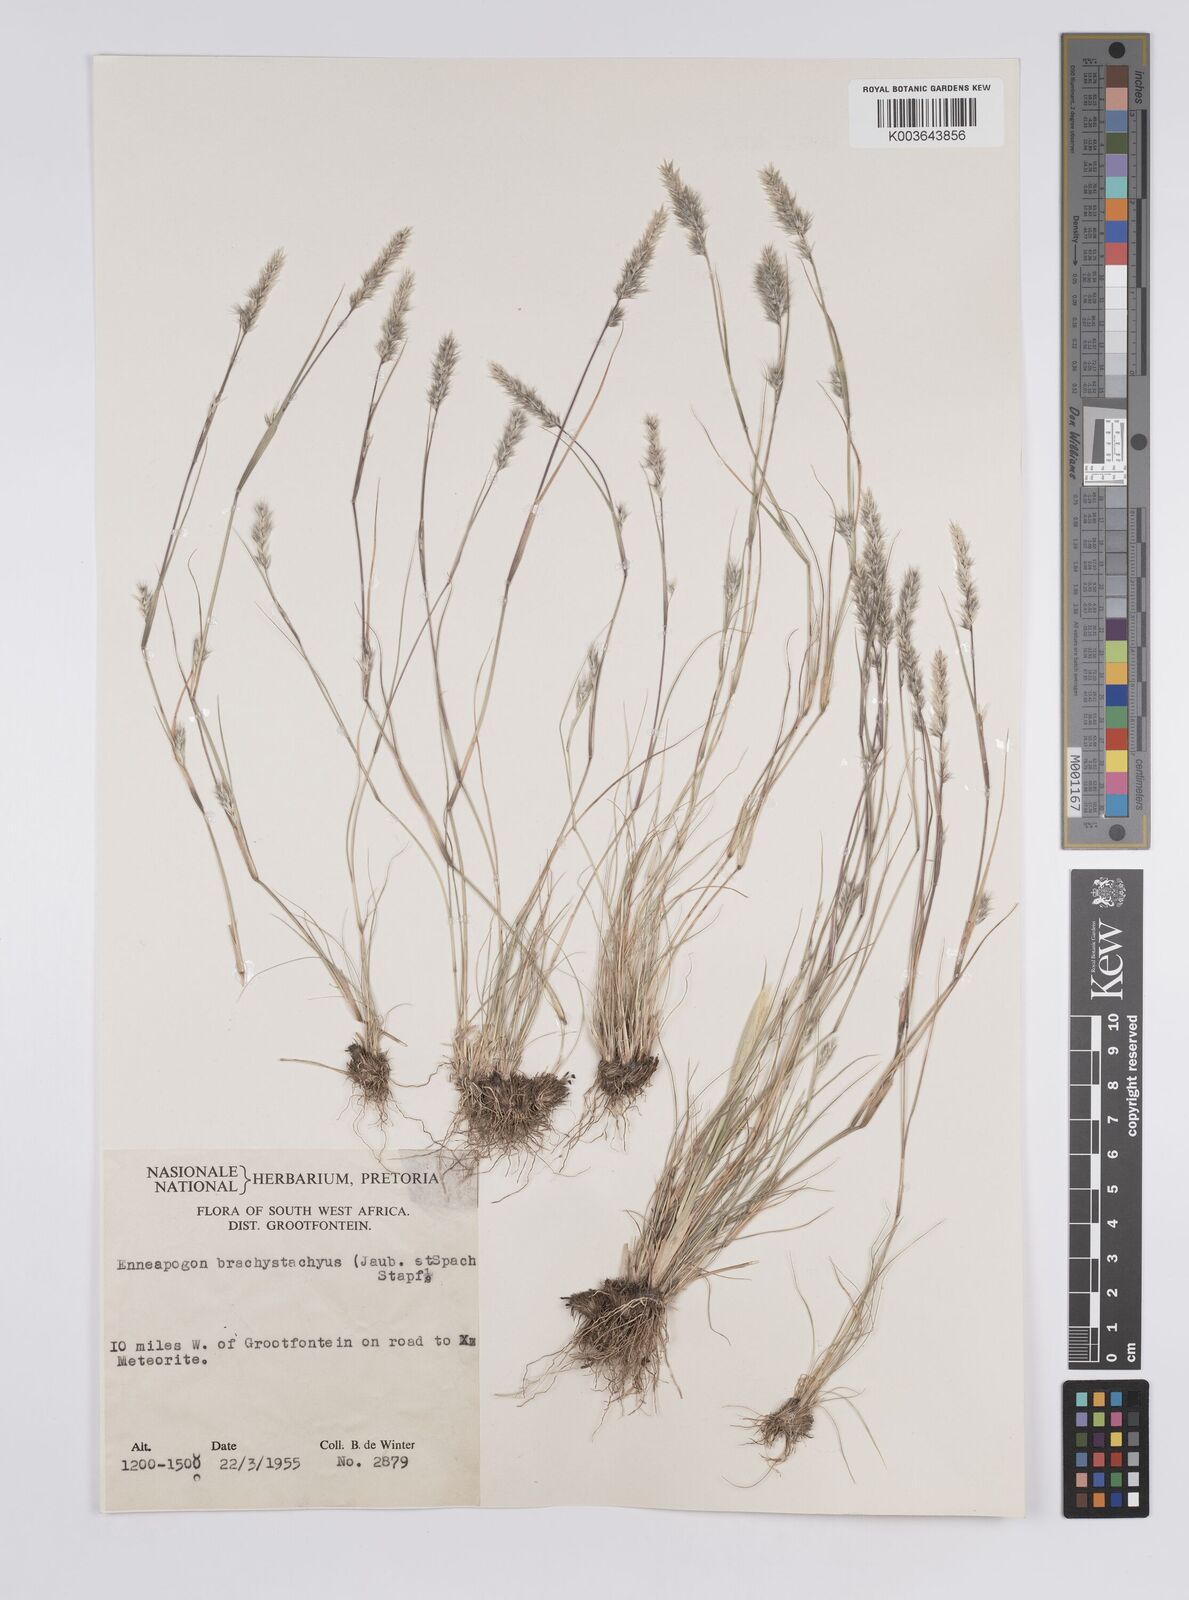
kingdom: Plantae
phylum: Tracheophyta
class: Liliopsida
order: Poales
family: Poaceae
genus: Enneapogon
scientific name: Enneapogon desvauxii
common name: Feather pappus grass
